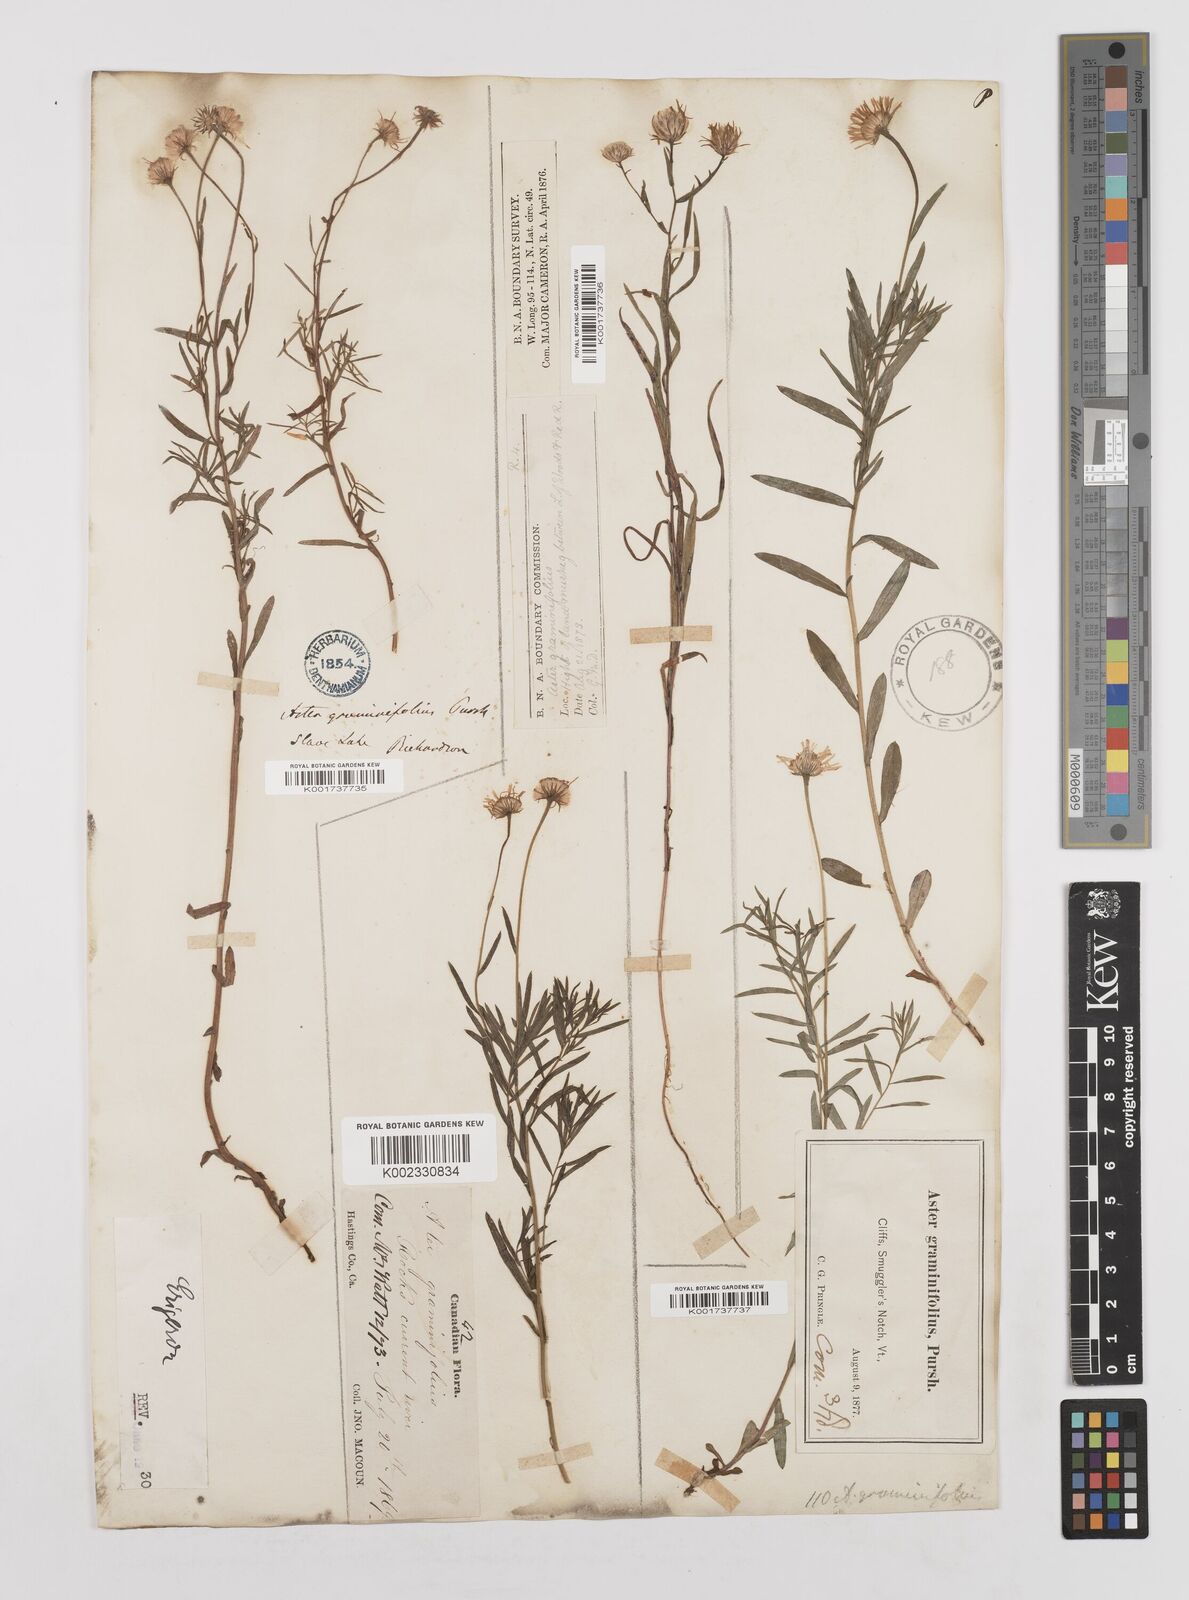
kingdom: Plantae
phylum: Tracheophyta
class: Magnoliopsida
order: Asterales
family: Asteraceae
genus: Erigeron
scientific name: Erigeron
